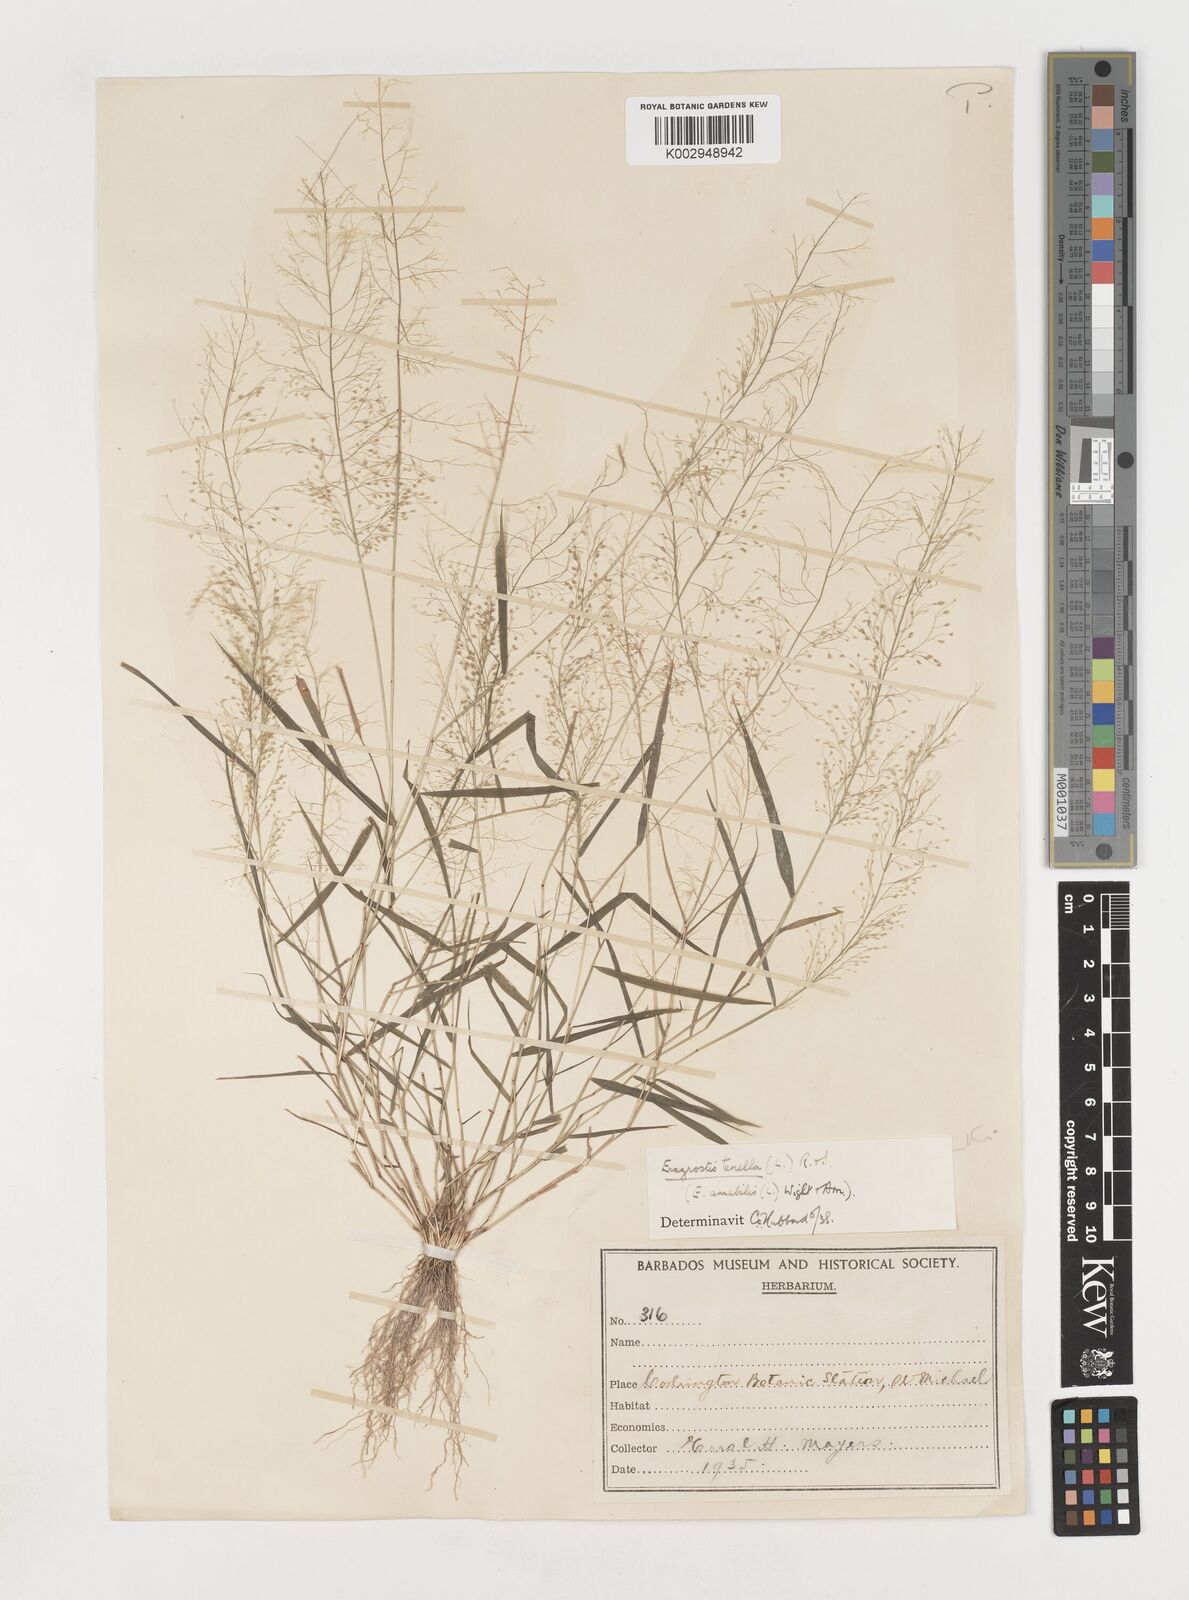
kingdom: Plantae
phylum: Tracheophyta
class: Liliopsida
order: Poales
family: Poaceae
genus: Eragrostis
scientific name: Eragrostis tenella
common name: Japanese lovegrass
